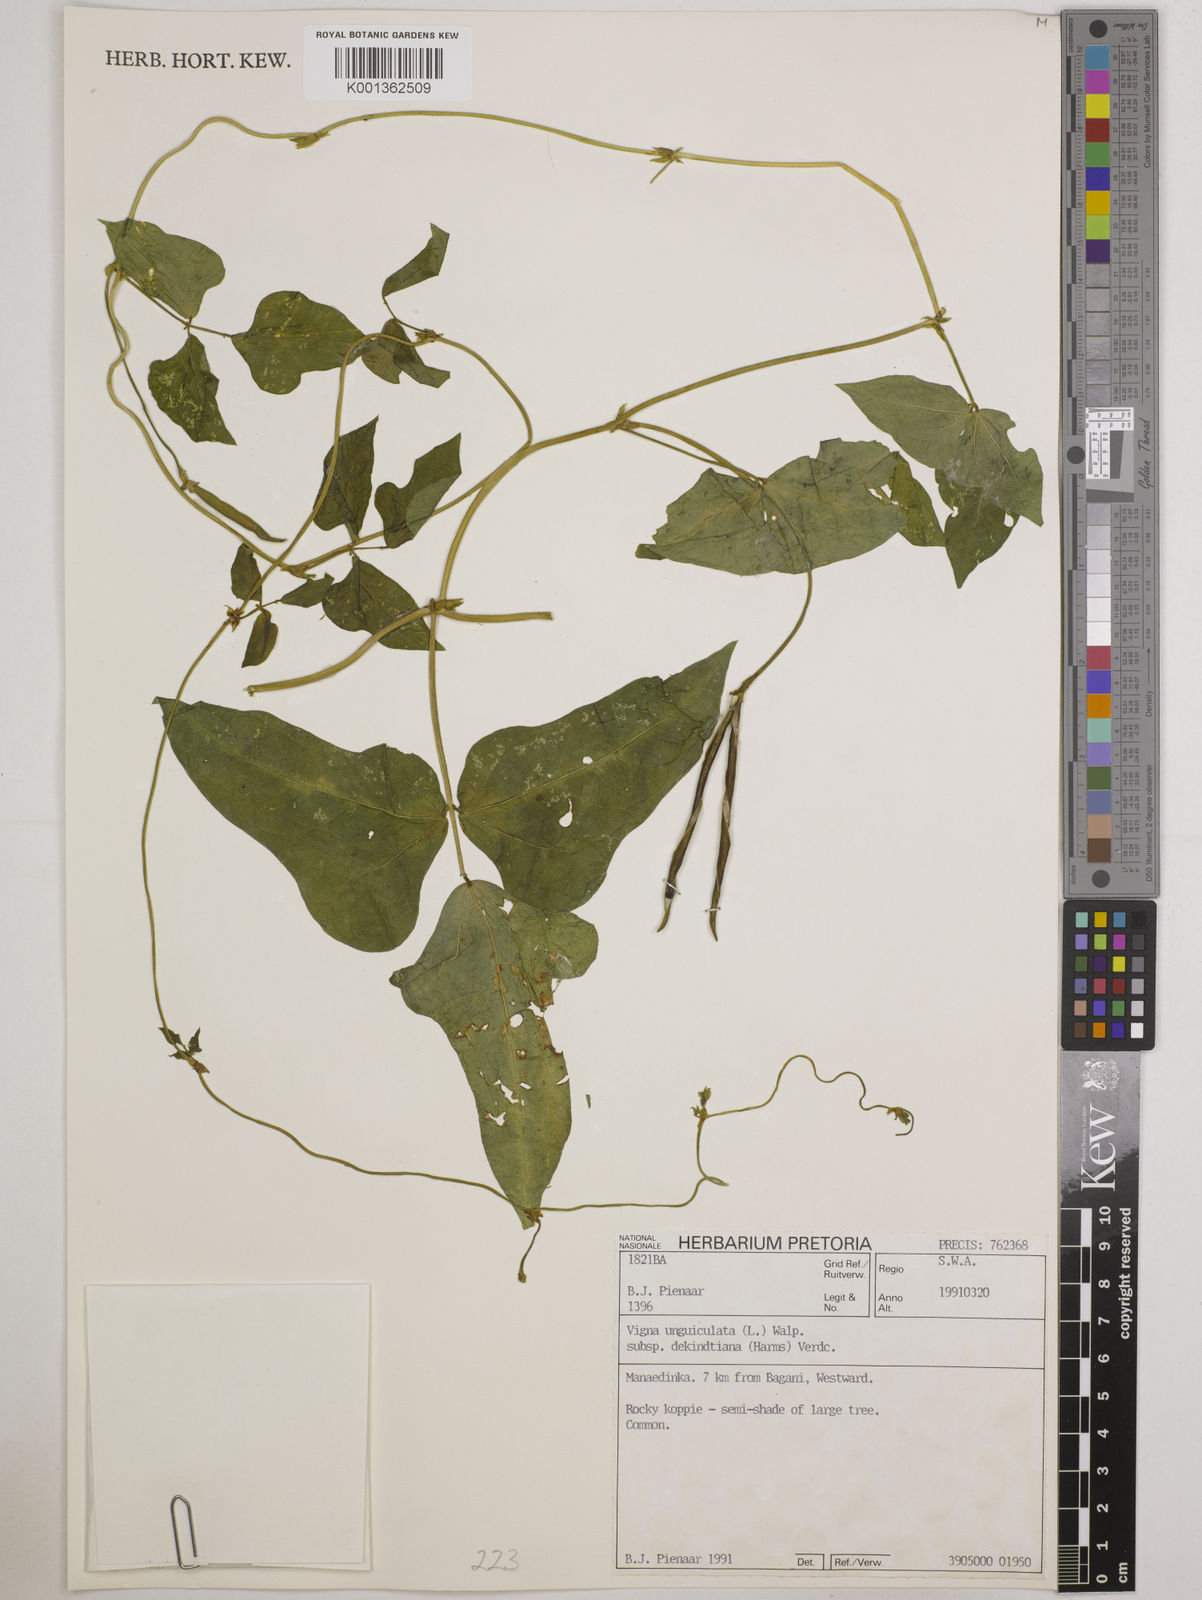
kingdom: Plantae
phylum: Tracheophyta
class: Magnoliopsida
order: Fabales
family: Fabaceae
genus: Vigna
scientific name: Vigna
